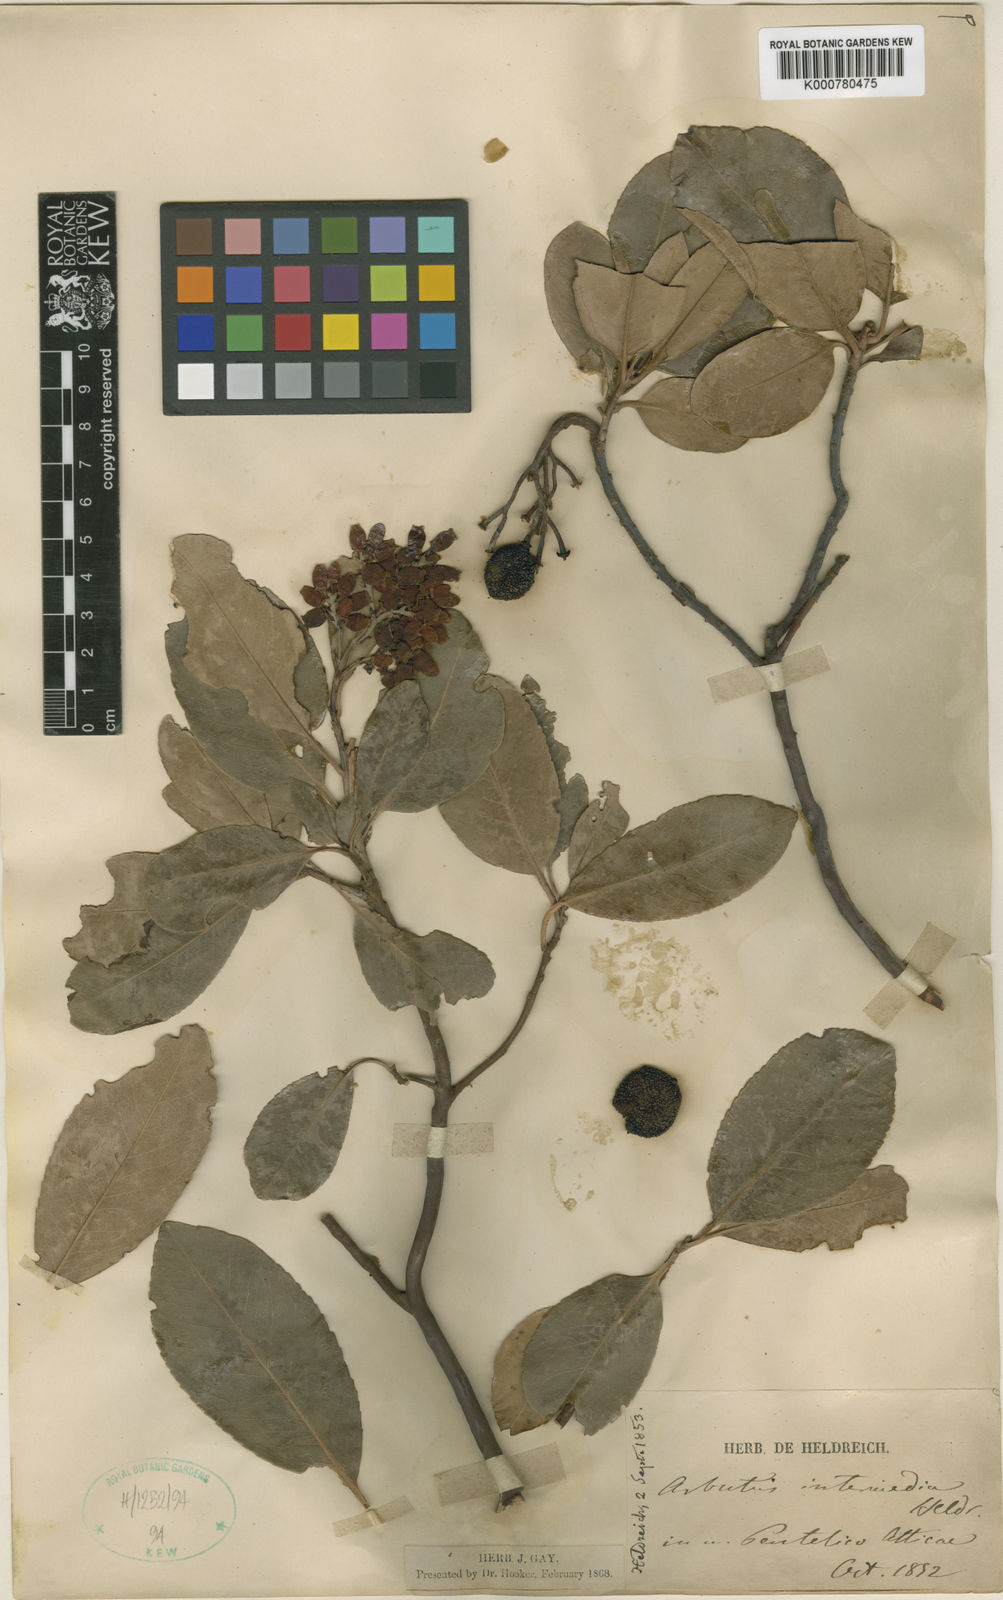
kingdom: Plantae
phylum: Tracheophyta
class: Magnoliopsida
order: Ericales
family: Ericaceae
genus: Arbutus
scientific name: Arbutus andrachnoides
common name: Hybrid strawberry-tree
